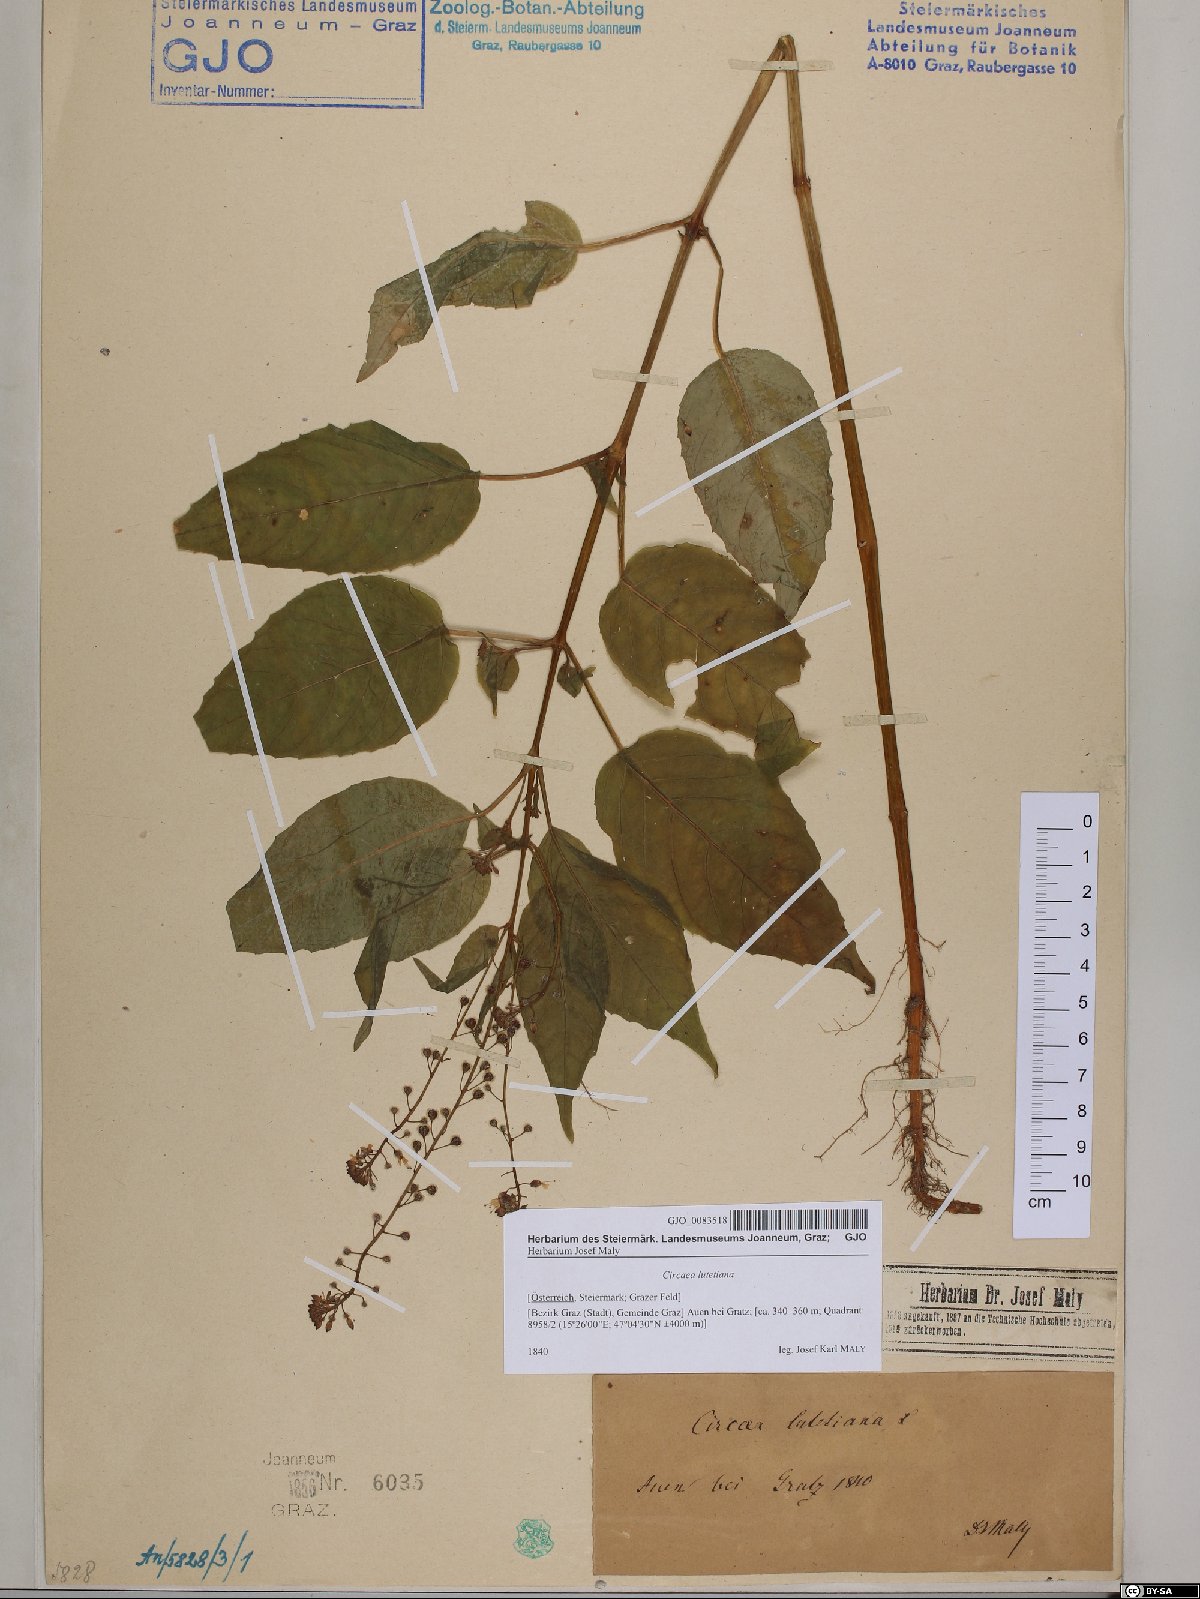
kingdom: Plantae
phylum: Tracheophyta
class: Magnoliopsida
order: Myrtales
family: Onagraceae
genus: Circaea
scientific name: Circaea lutetiana
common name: Enchanter's-nightshade
